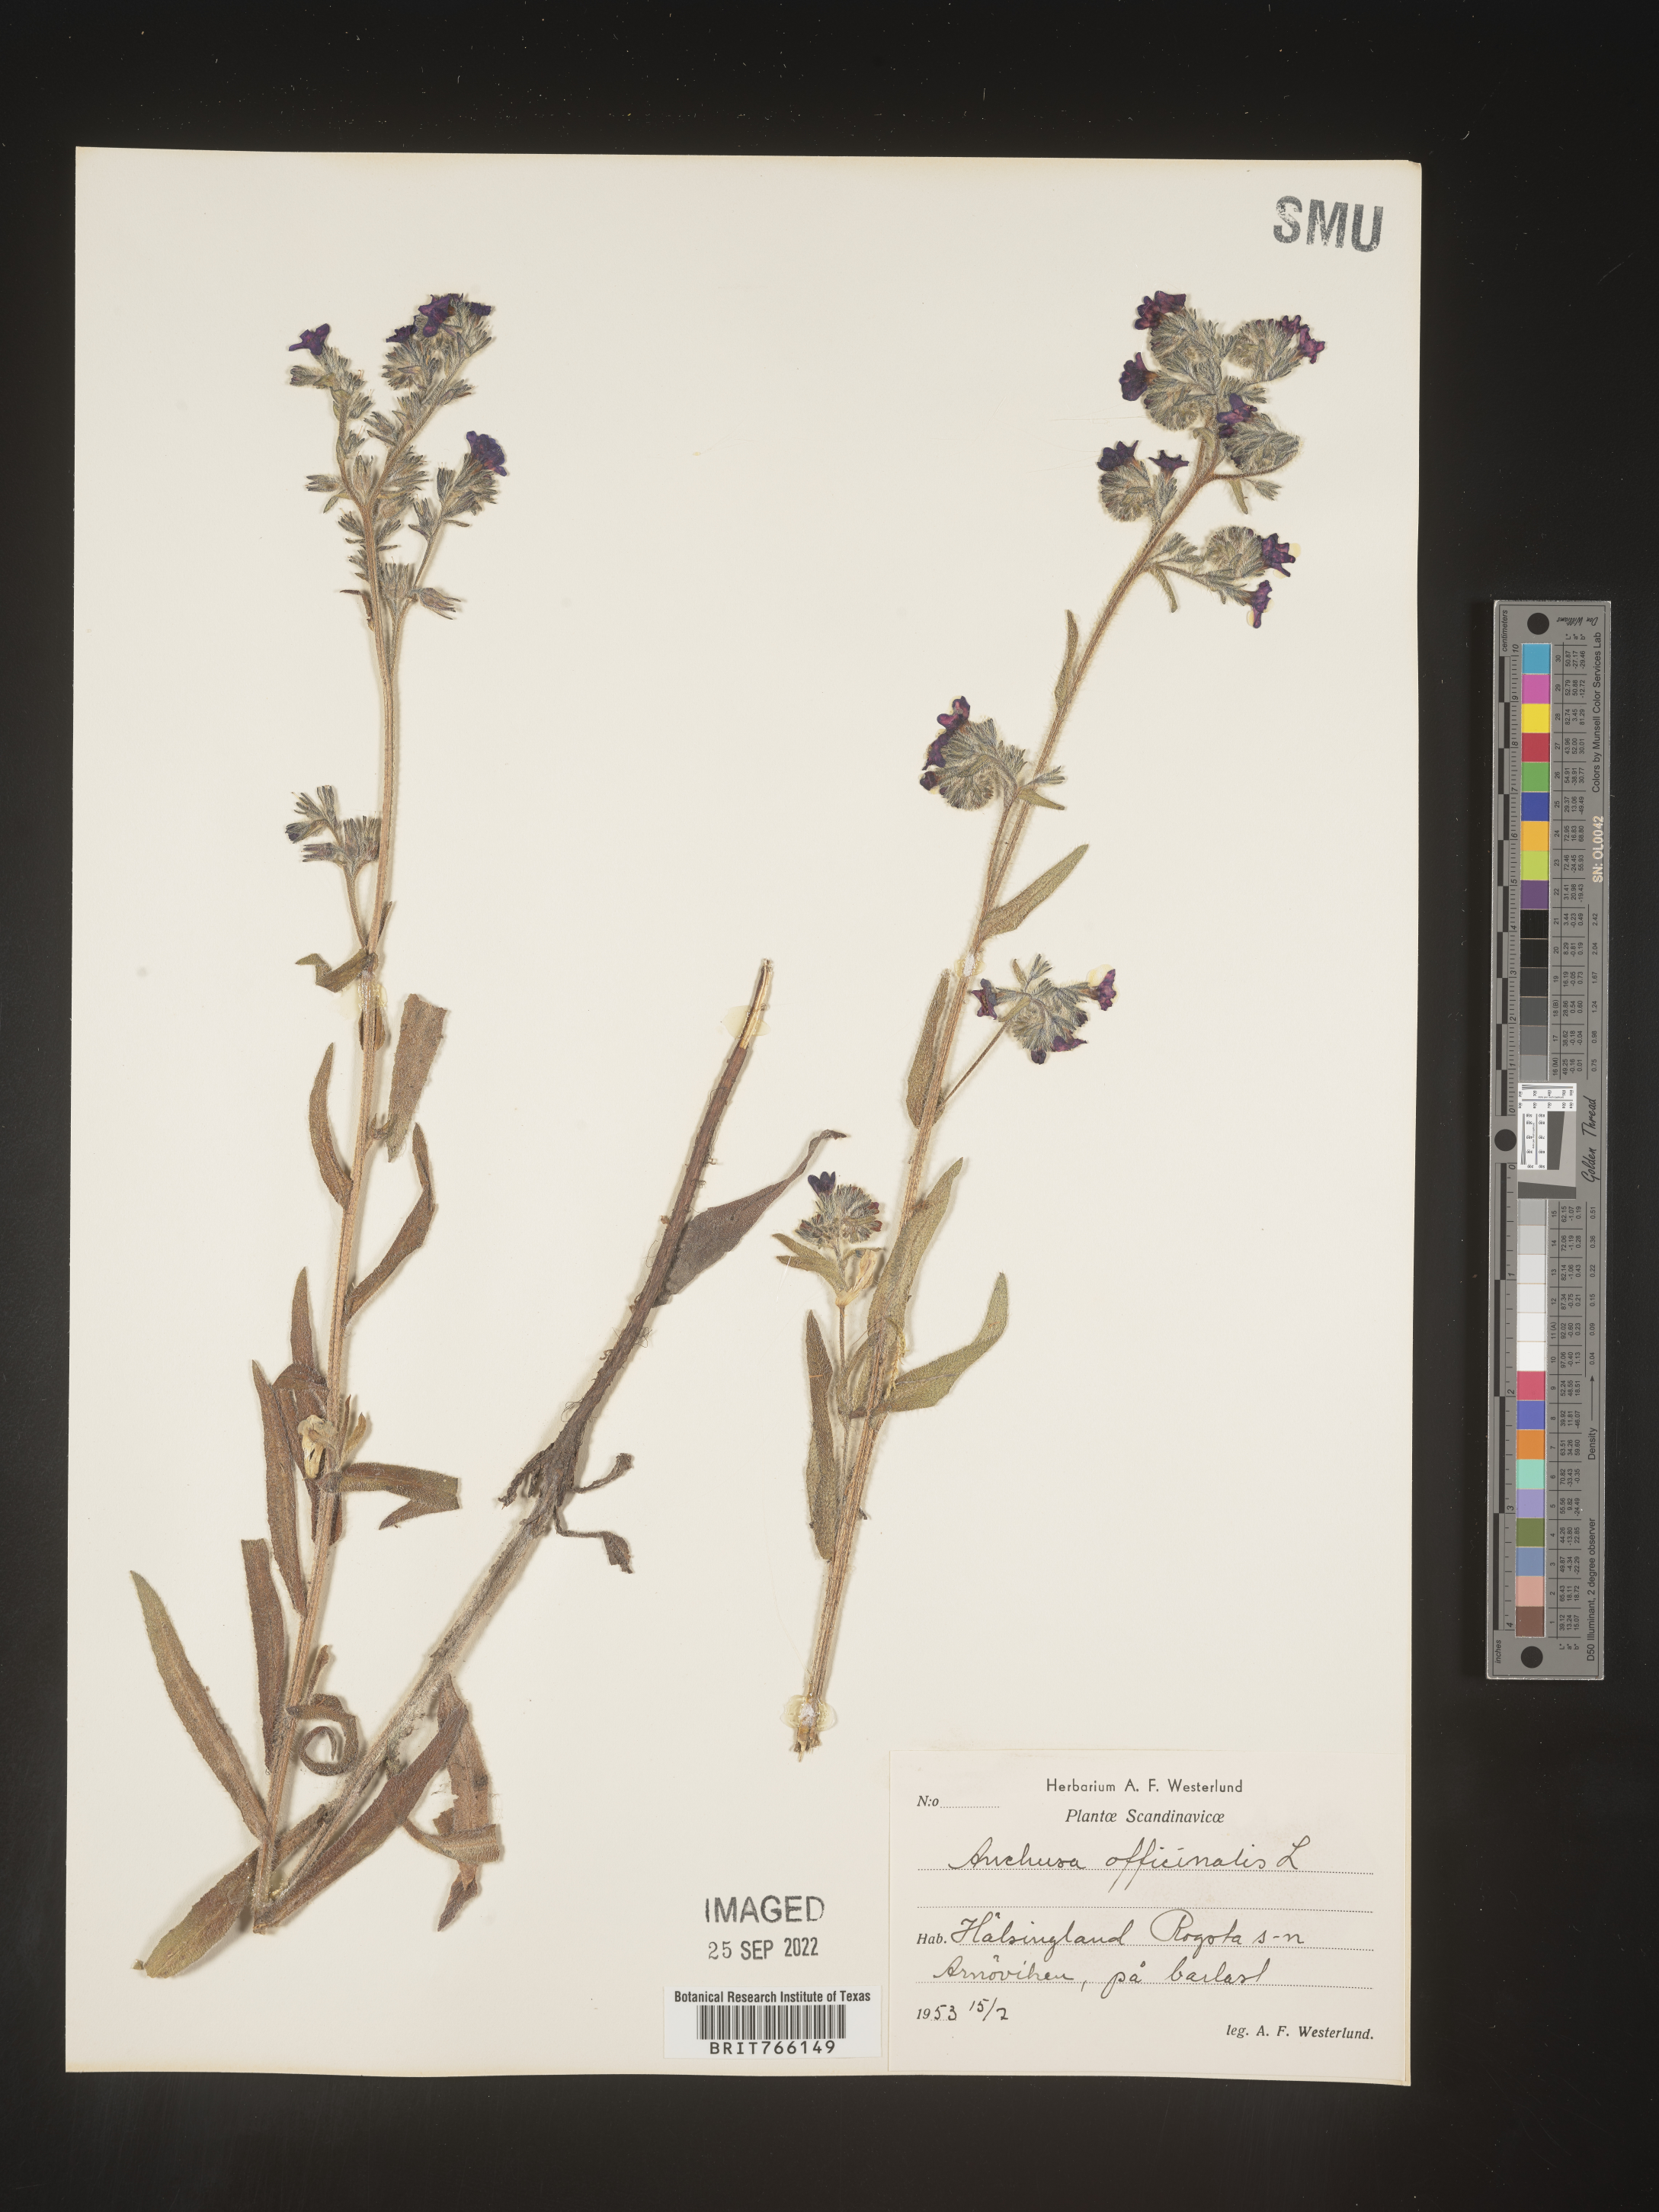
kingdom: Plantae
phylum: Tracheophyta
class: Magnoliopsida
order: Boraginales
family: Boraginaceae
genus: Anchusa
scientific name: Anchusa
